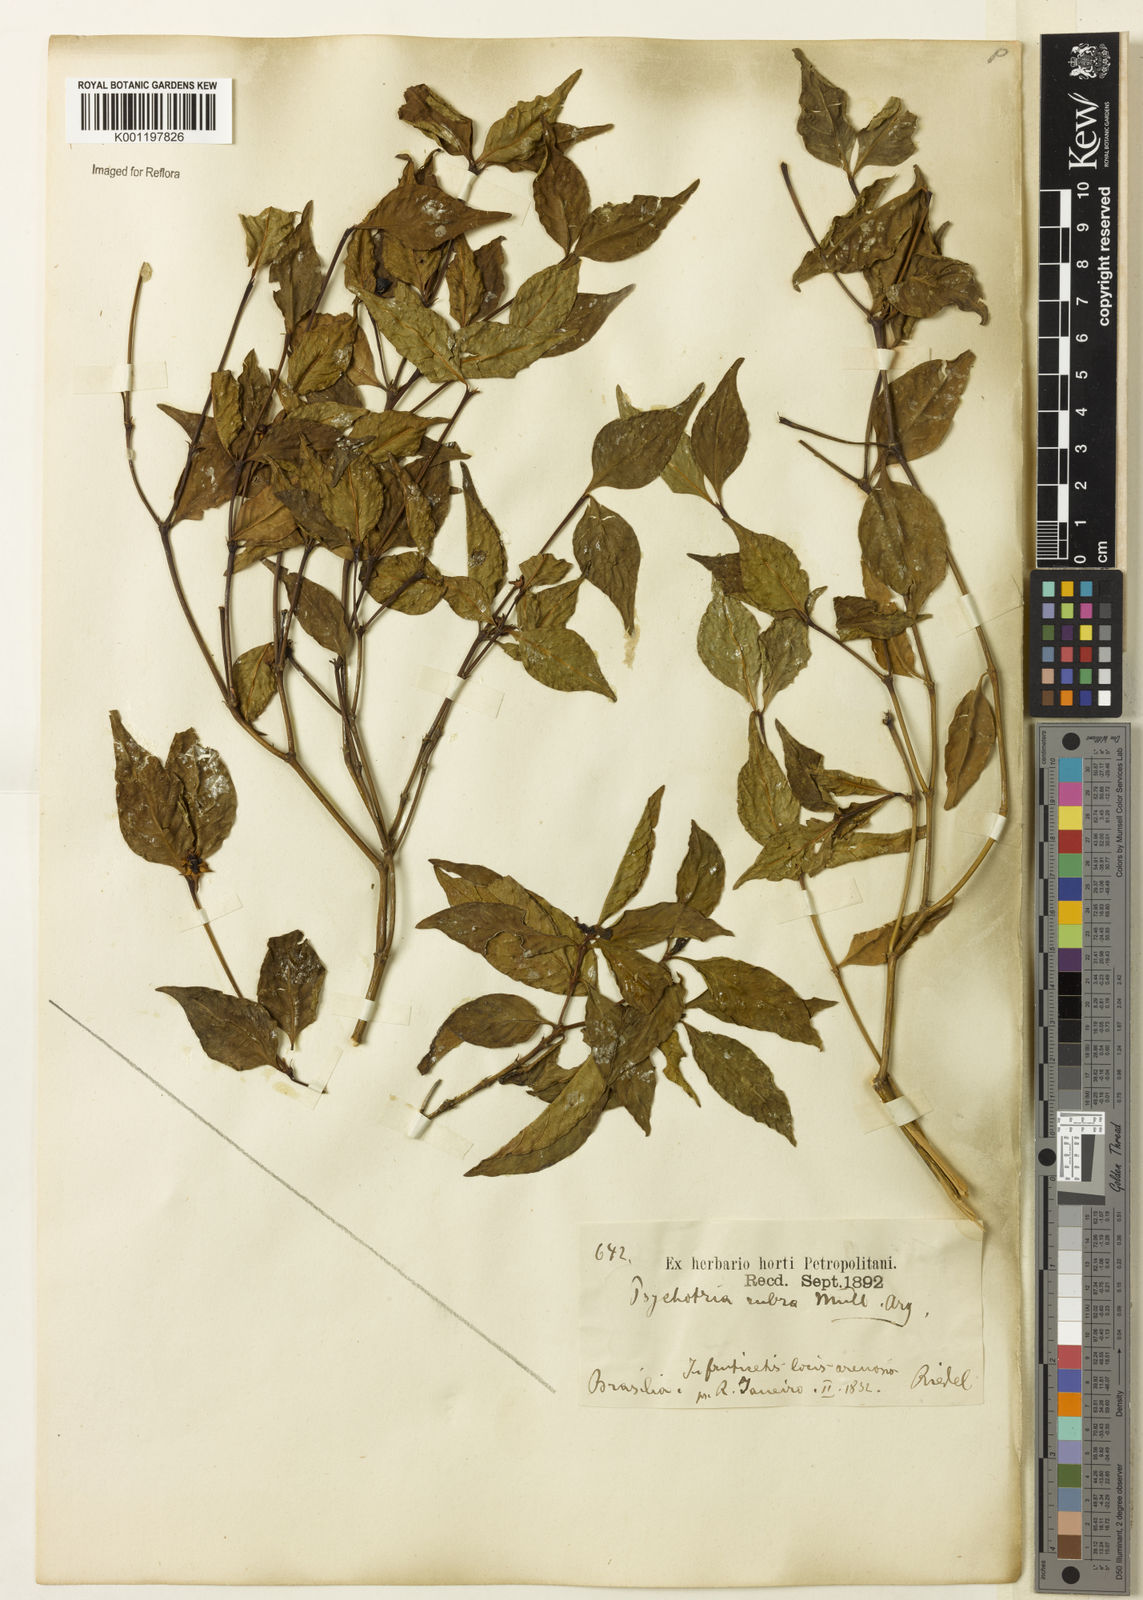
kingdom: Plantae
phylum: Tracheophyta
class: Magnoliopsida
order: Gentianales
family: Rubiaceae
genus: Psychotria
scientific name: Psychotria
